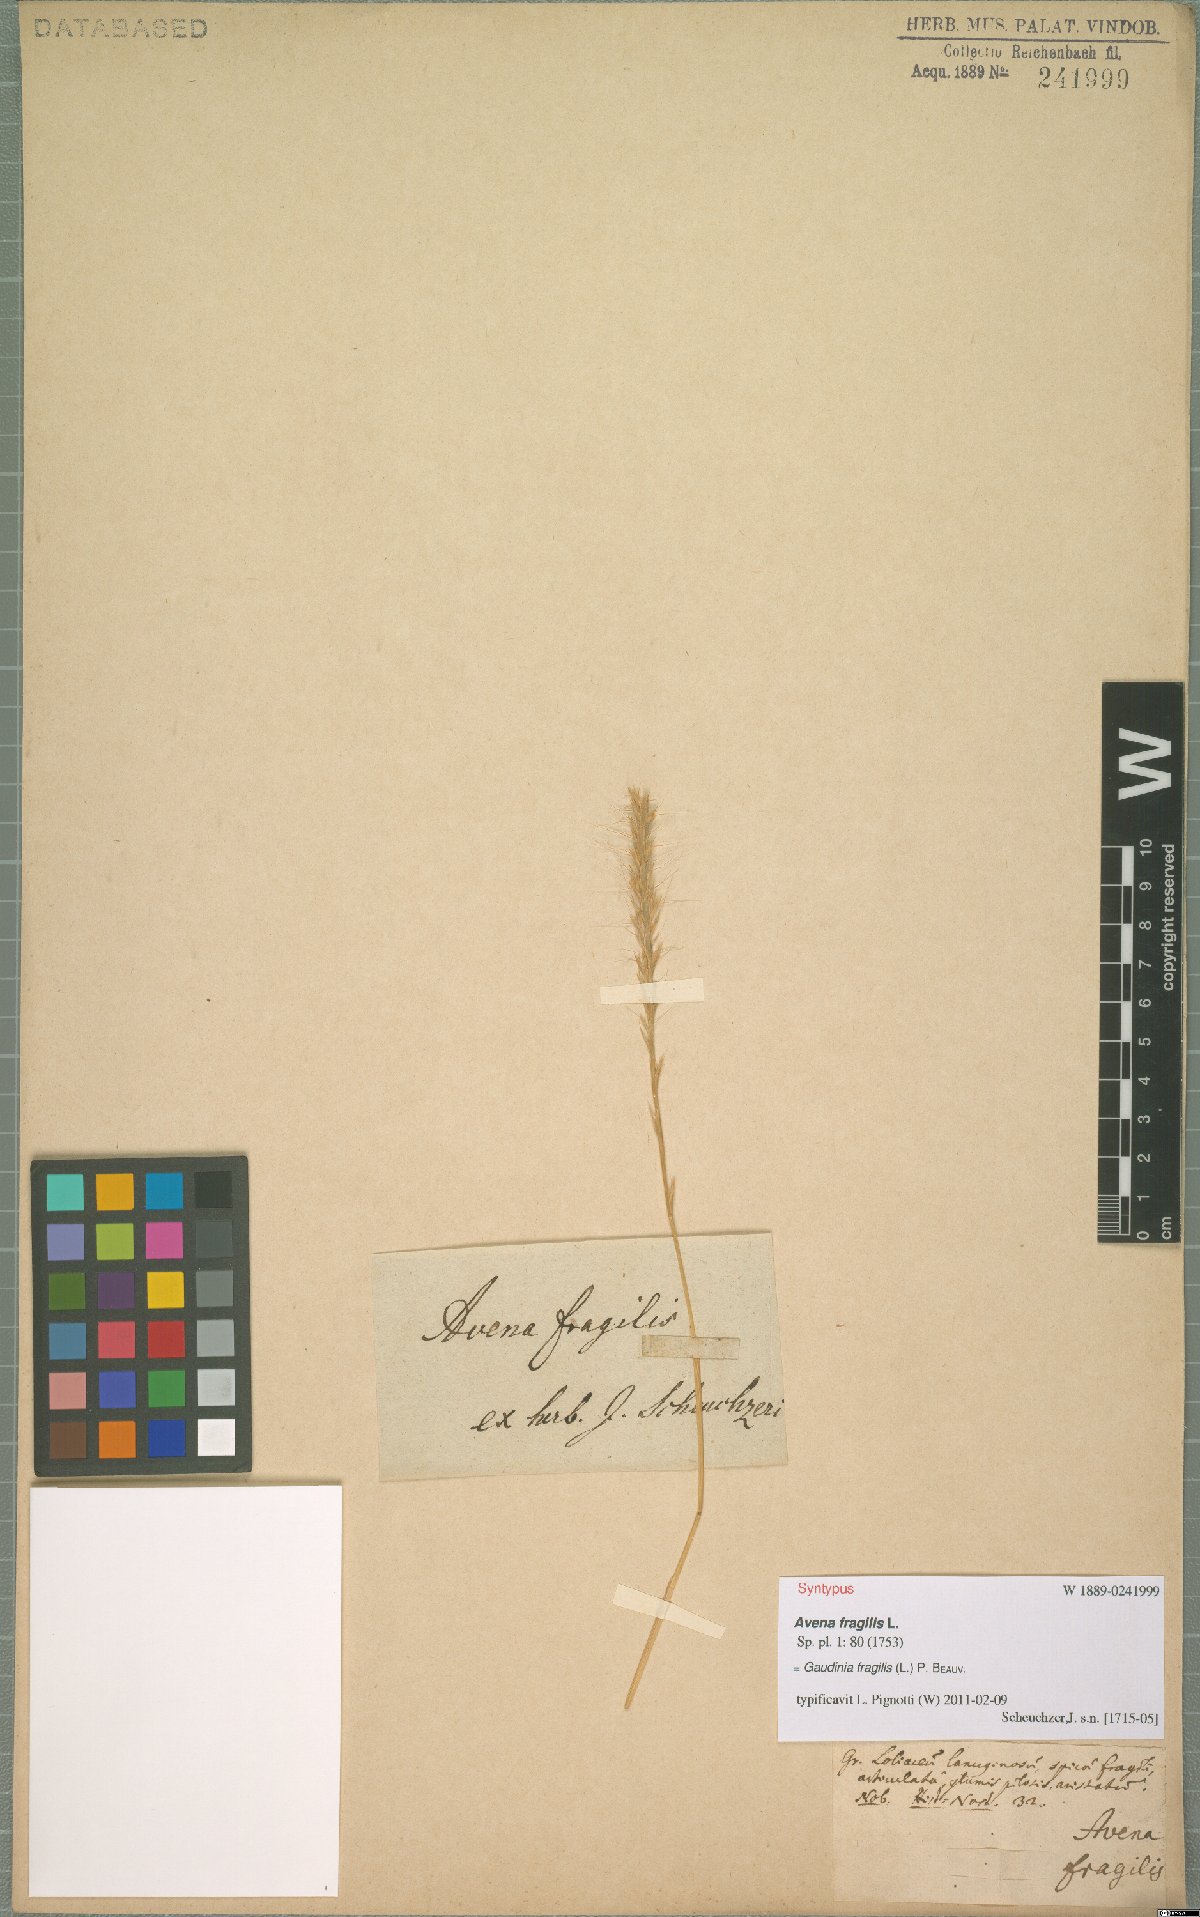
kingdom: Plantae
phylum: Tracheophyta
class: Liliopsida
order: Poales
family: Poaceae
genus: Gaudinia
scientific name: Gaudinia fragilis
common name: French oat-grass
